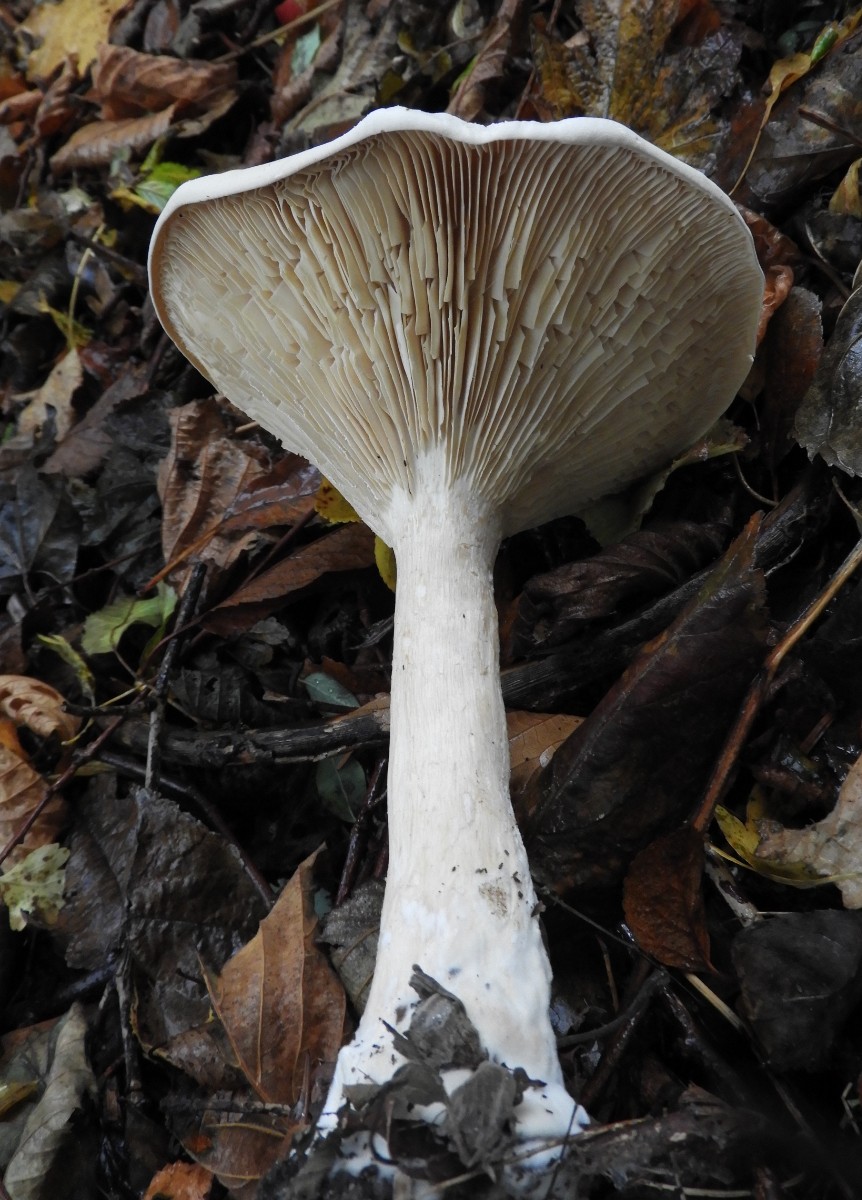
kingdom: Fungi
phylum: Basidiomycota
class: Agaricomycetes
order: Agaricales
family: Tricholomataceae
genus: Infundibulicybe
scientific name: Infundibulicybe geotropa
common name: stor tragthat
